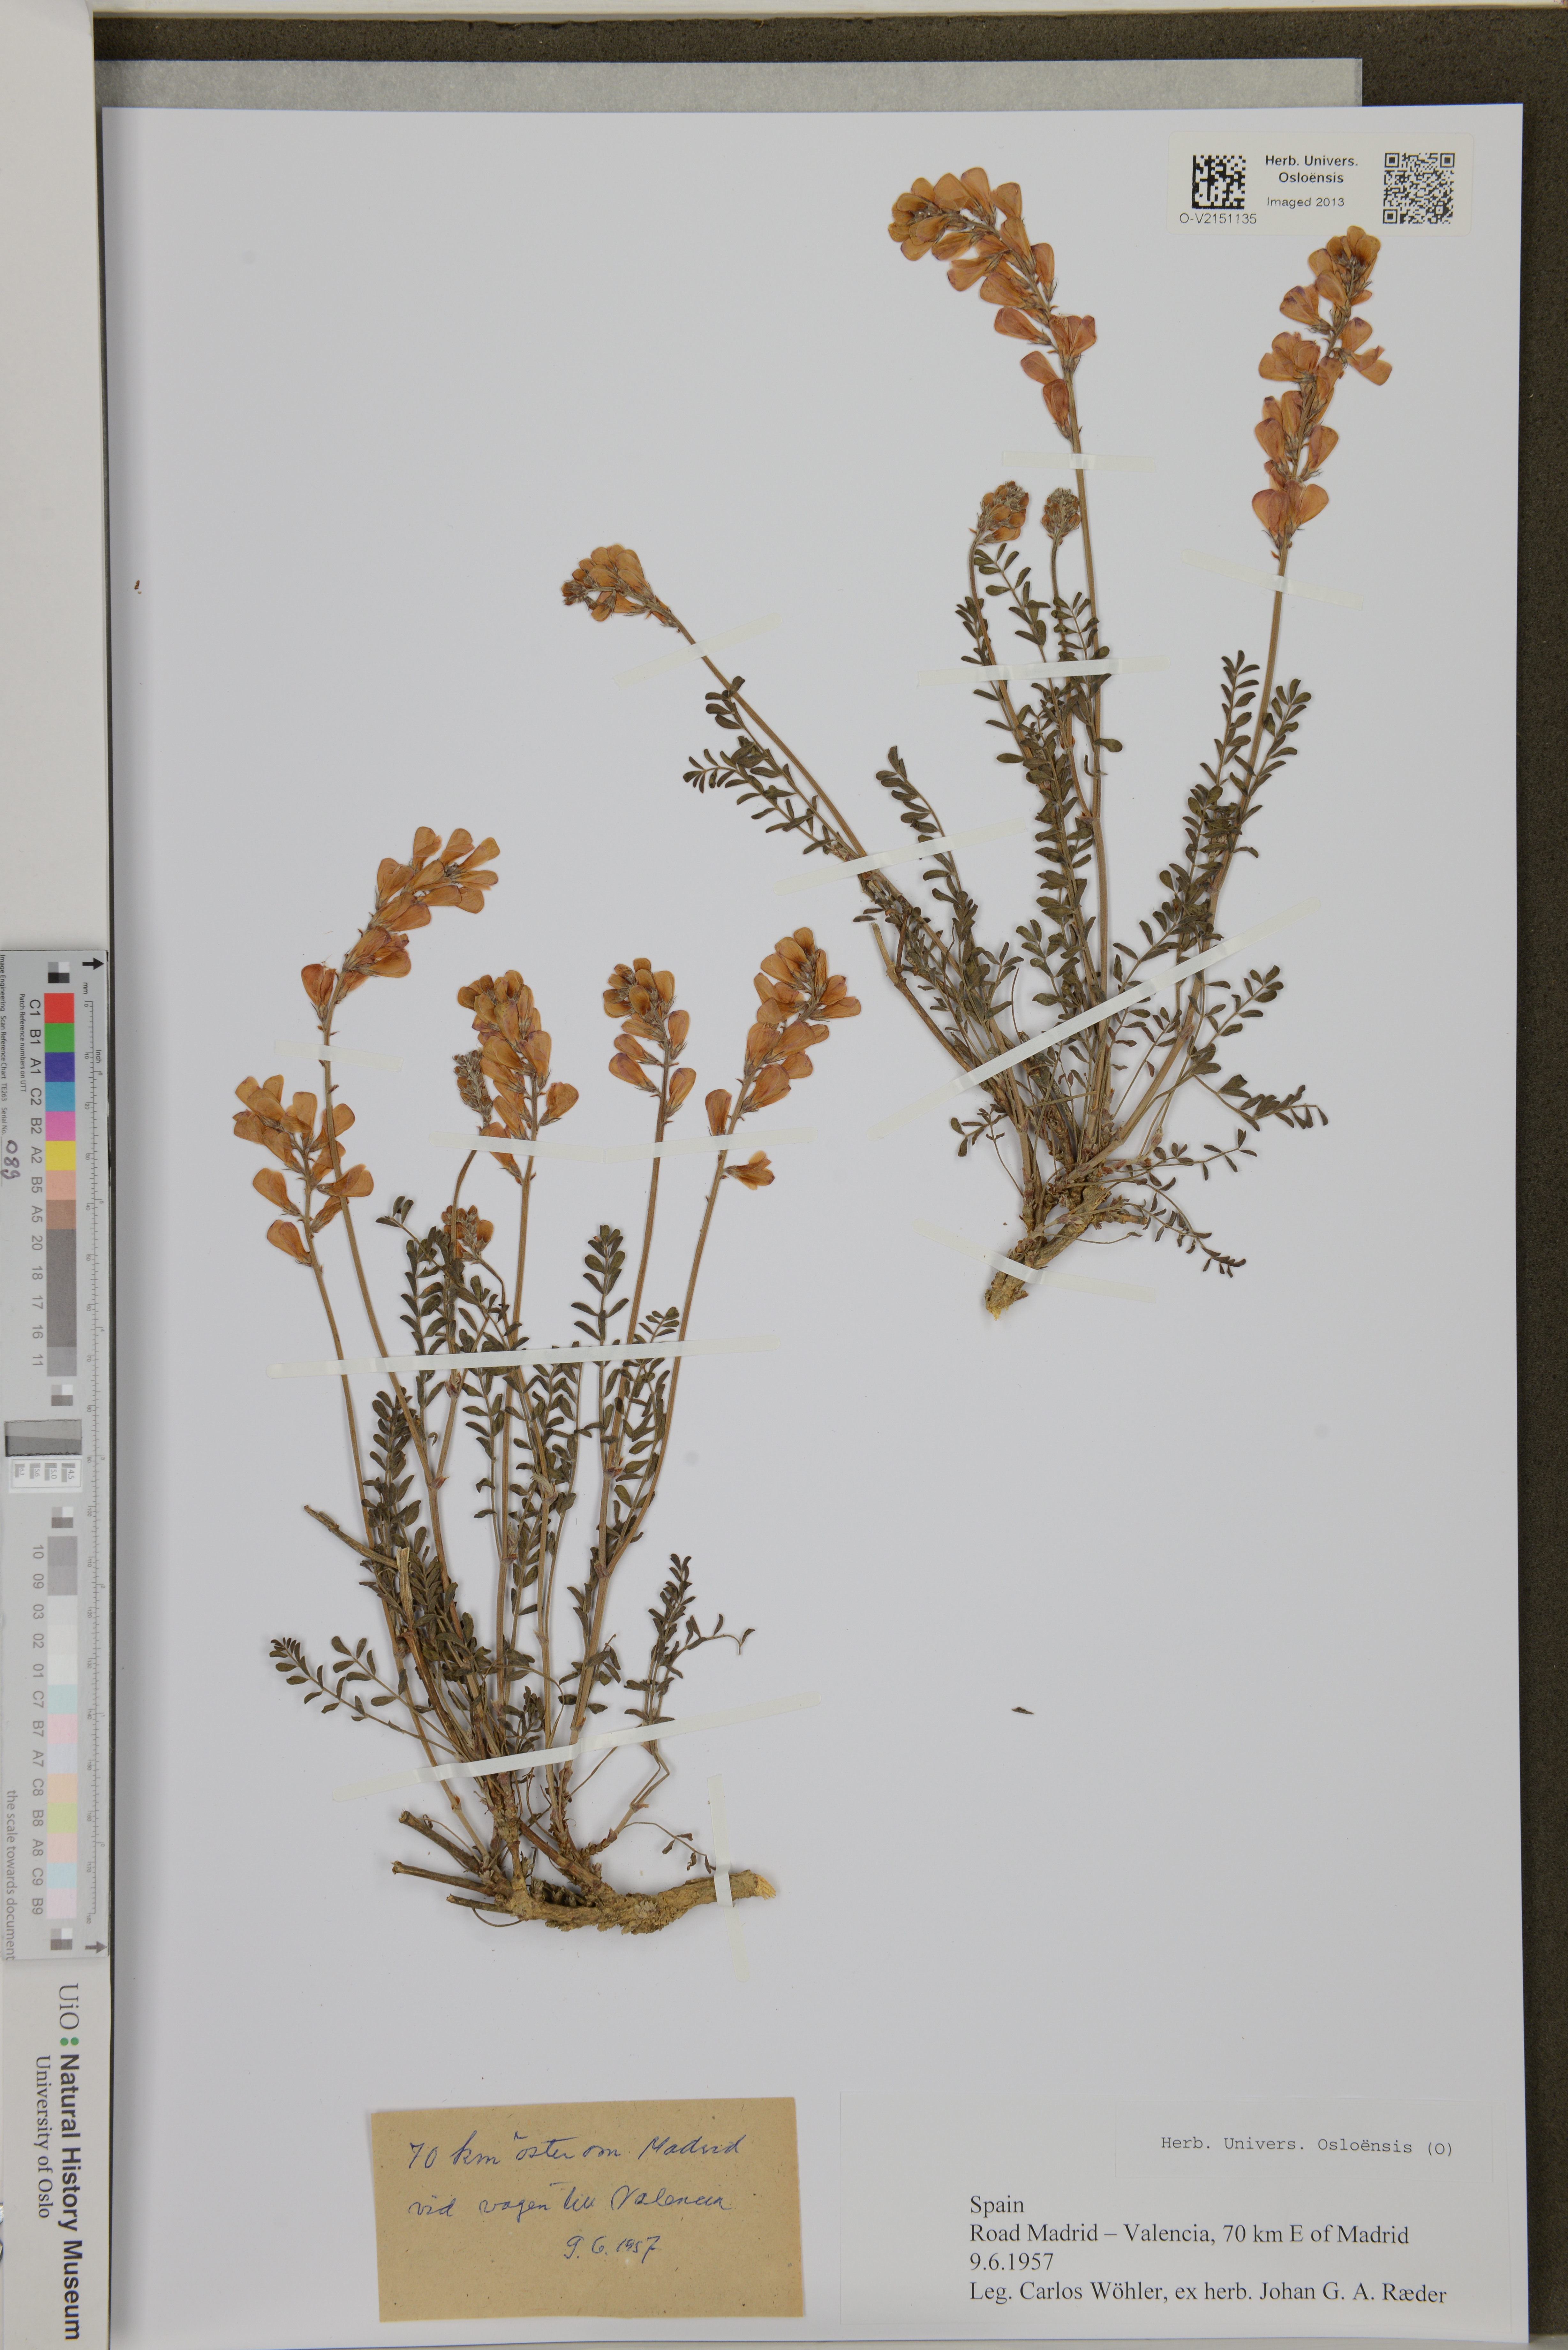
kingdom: Plantae
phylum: Tracheophyta
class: Magnoliopsida
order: Fabales
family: Fabaceae
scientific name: Fabaceae
